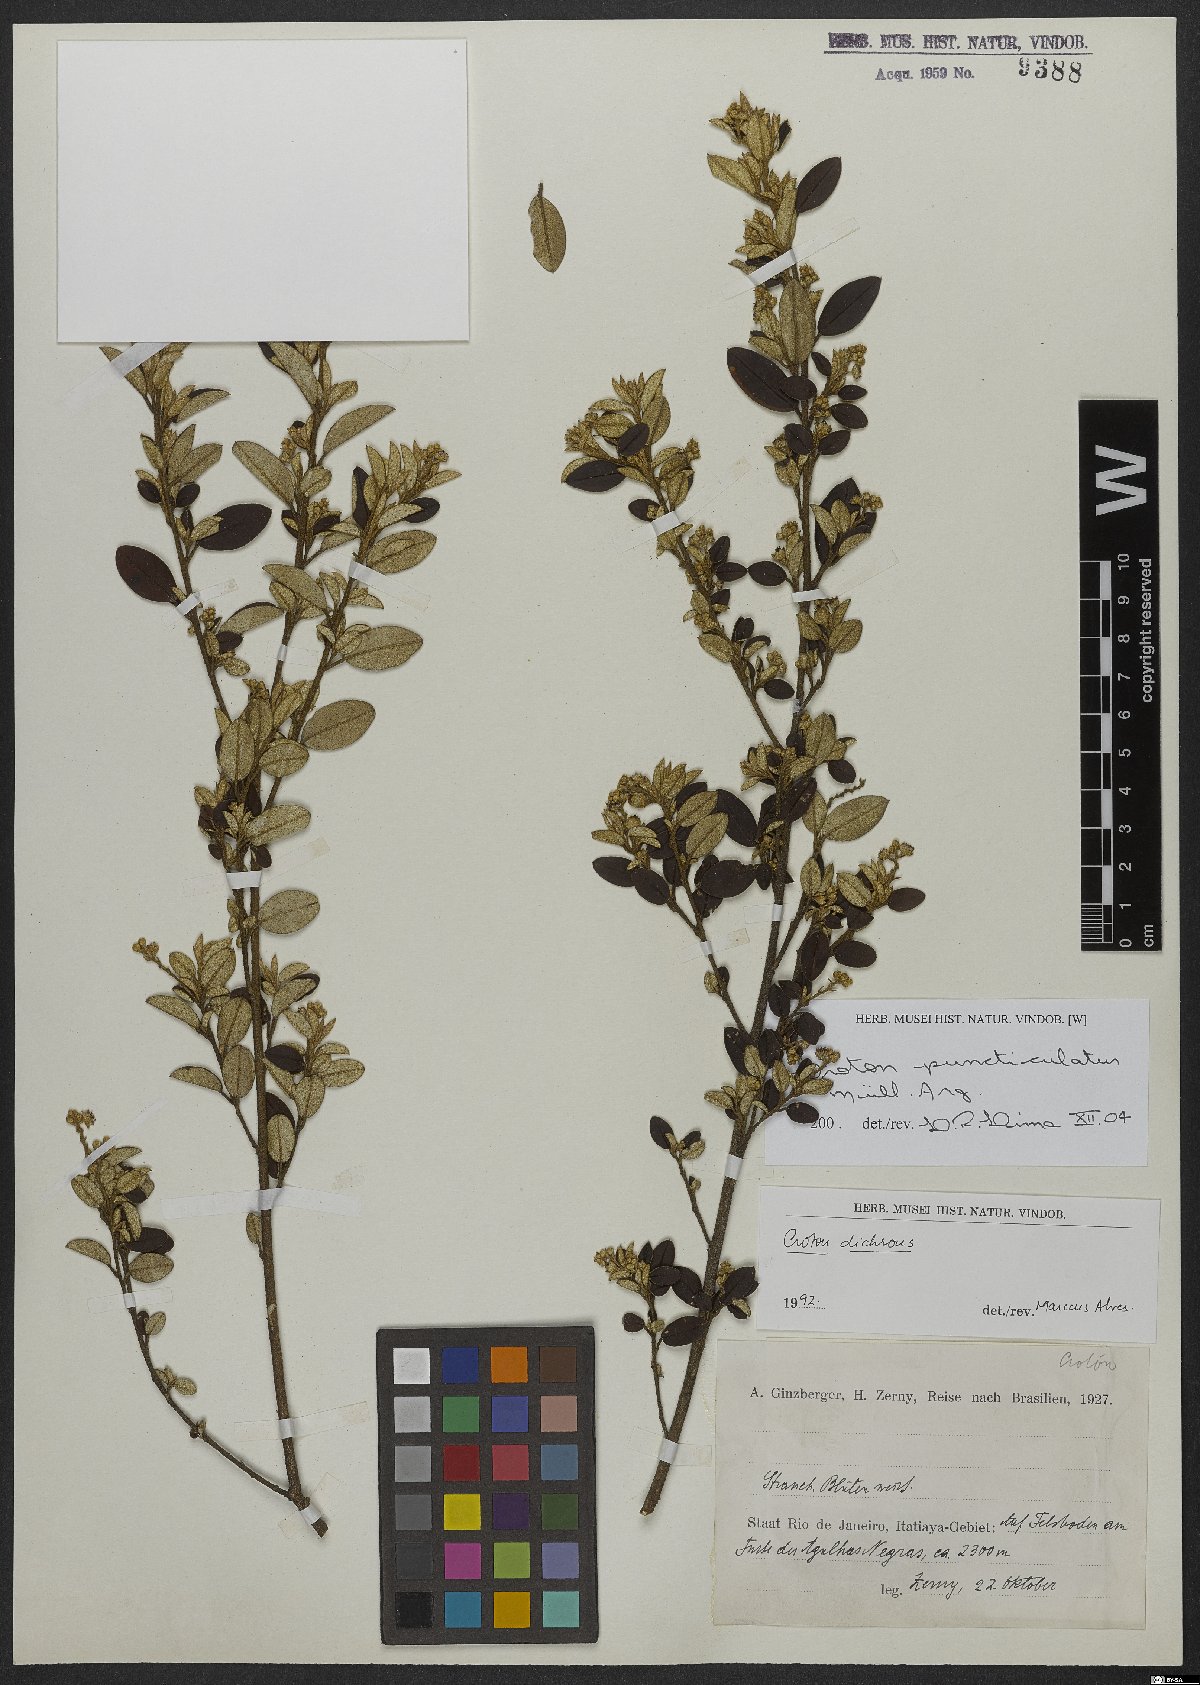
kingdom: Plantae
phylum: Tracheophyta
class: Magnoliopsida
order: Malpighiales
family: Euphorbiaceae
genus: Croton
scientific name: Croton puncticulatus
